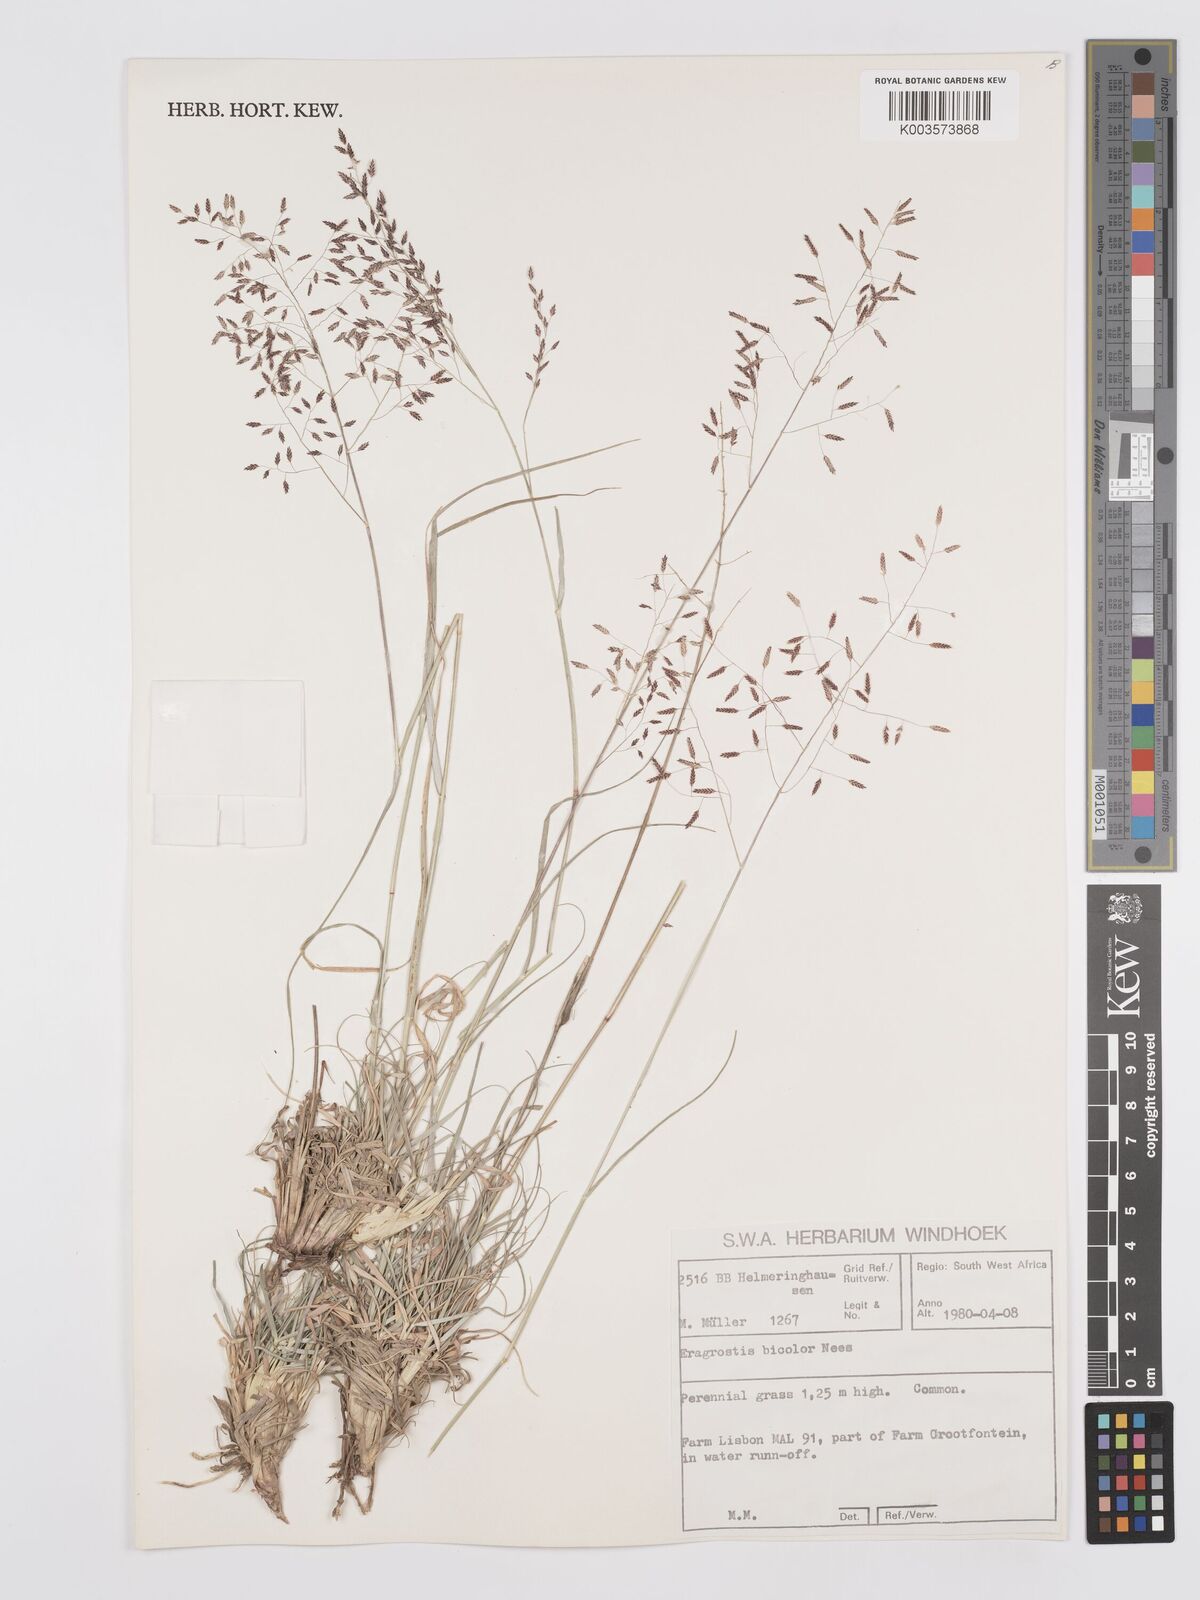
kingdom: Plantae
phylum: Tracheophyta
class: Liliopsida
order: Poales
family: Poaceae
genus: Eragrostis
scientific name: Eragrostis
